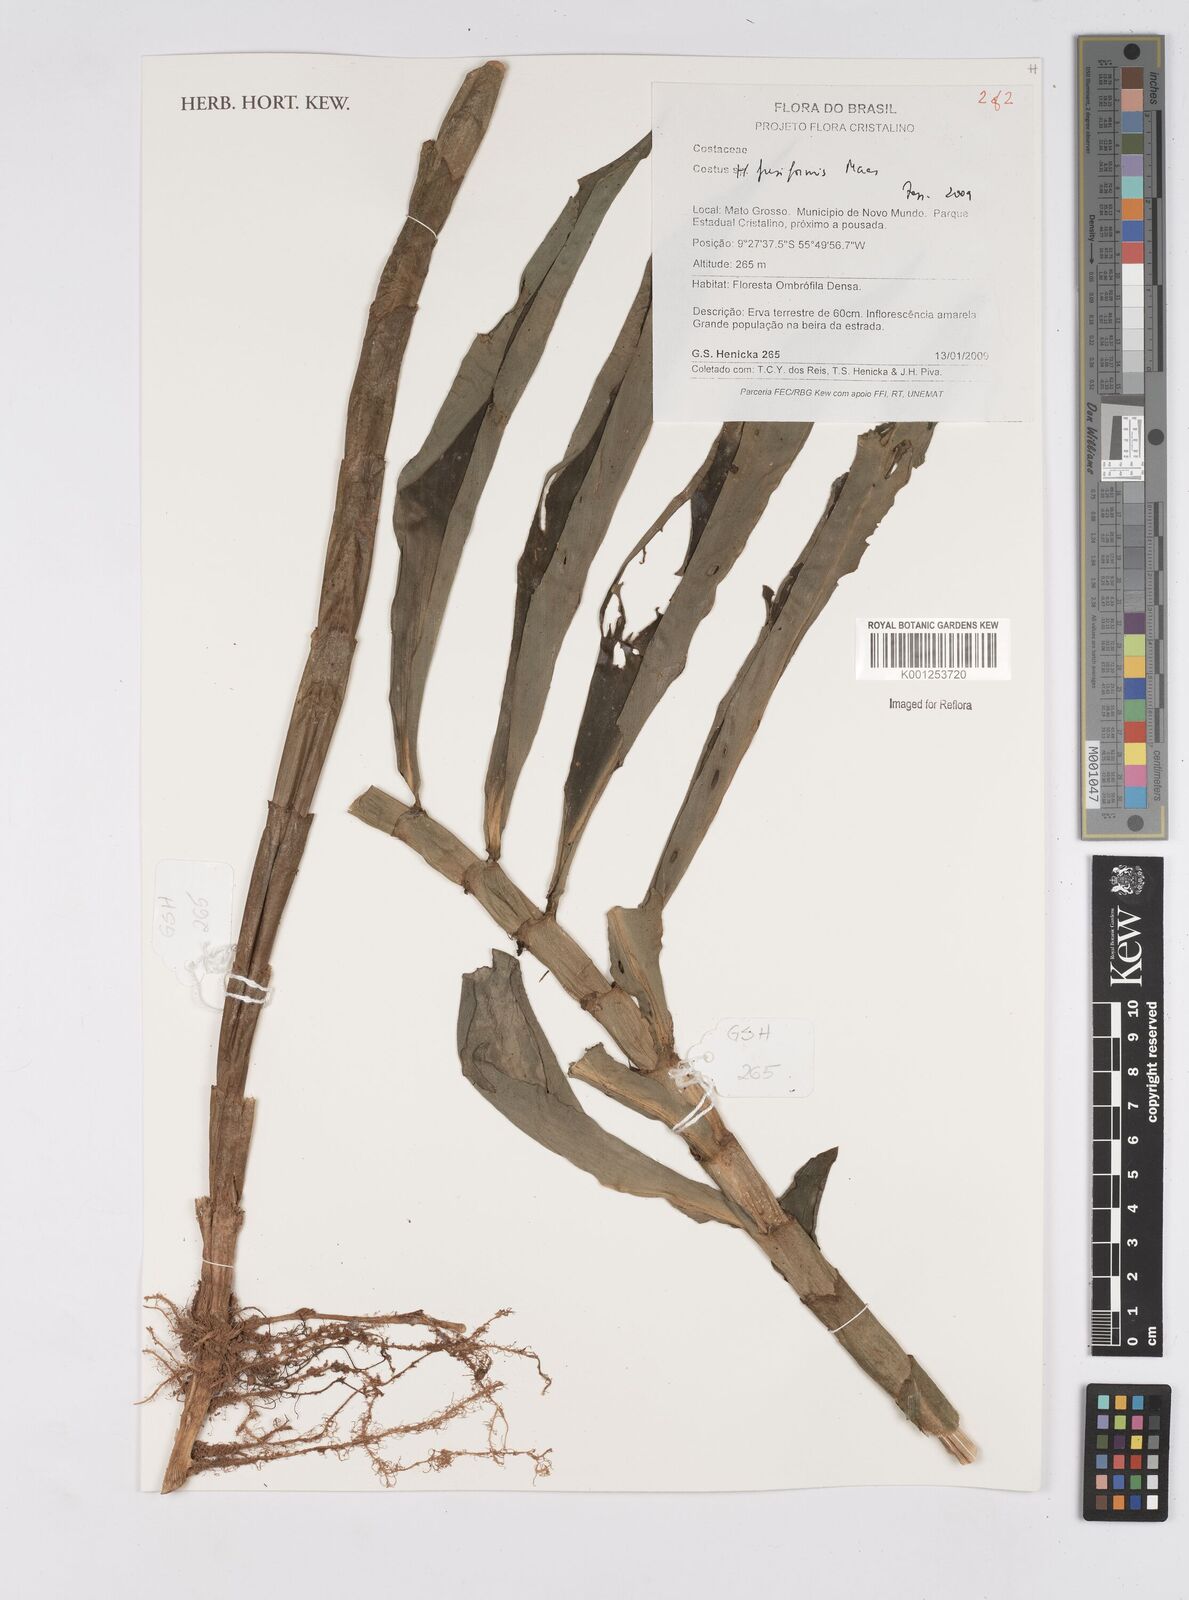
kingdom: Plantae
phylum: Tracheophyta
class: Liliopsida
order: Zingiberales
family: Costaceae
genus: Chamaecostus
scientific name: Chamaecostus fusiformis
